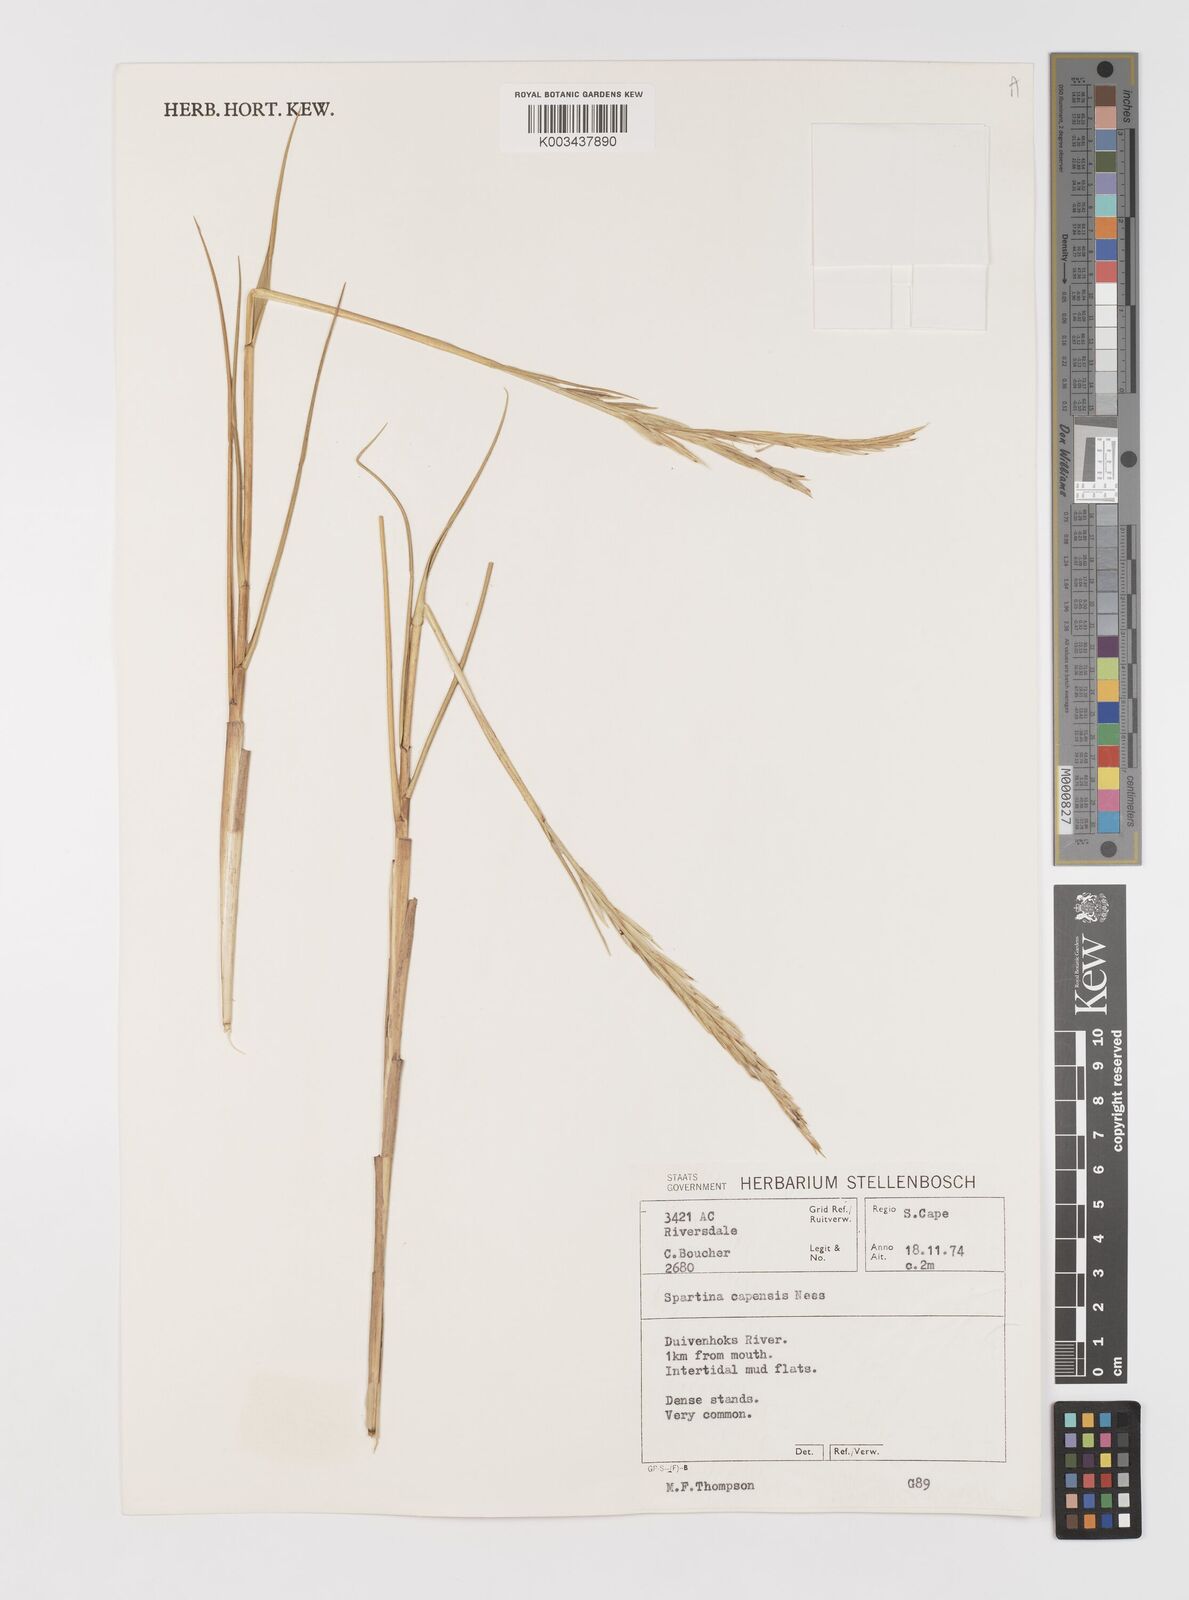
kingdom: Plantae
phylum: Tracheophyta
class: Liliopsida
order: Poales
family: Poaceae
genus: Sporobolus
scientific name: Sporobolus maritimus
